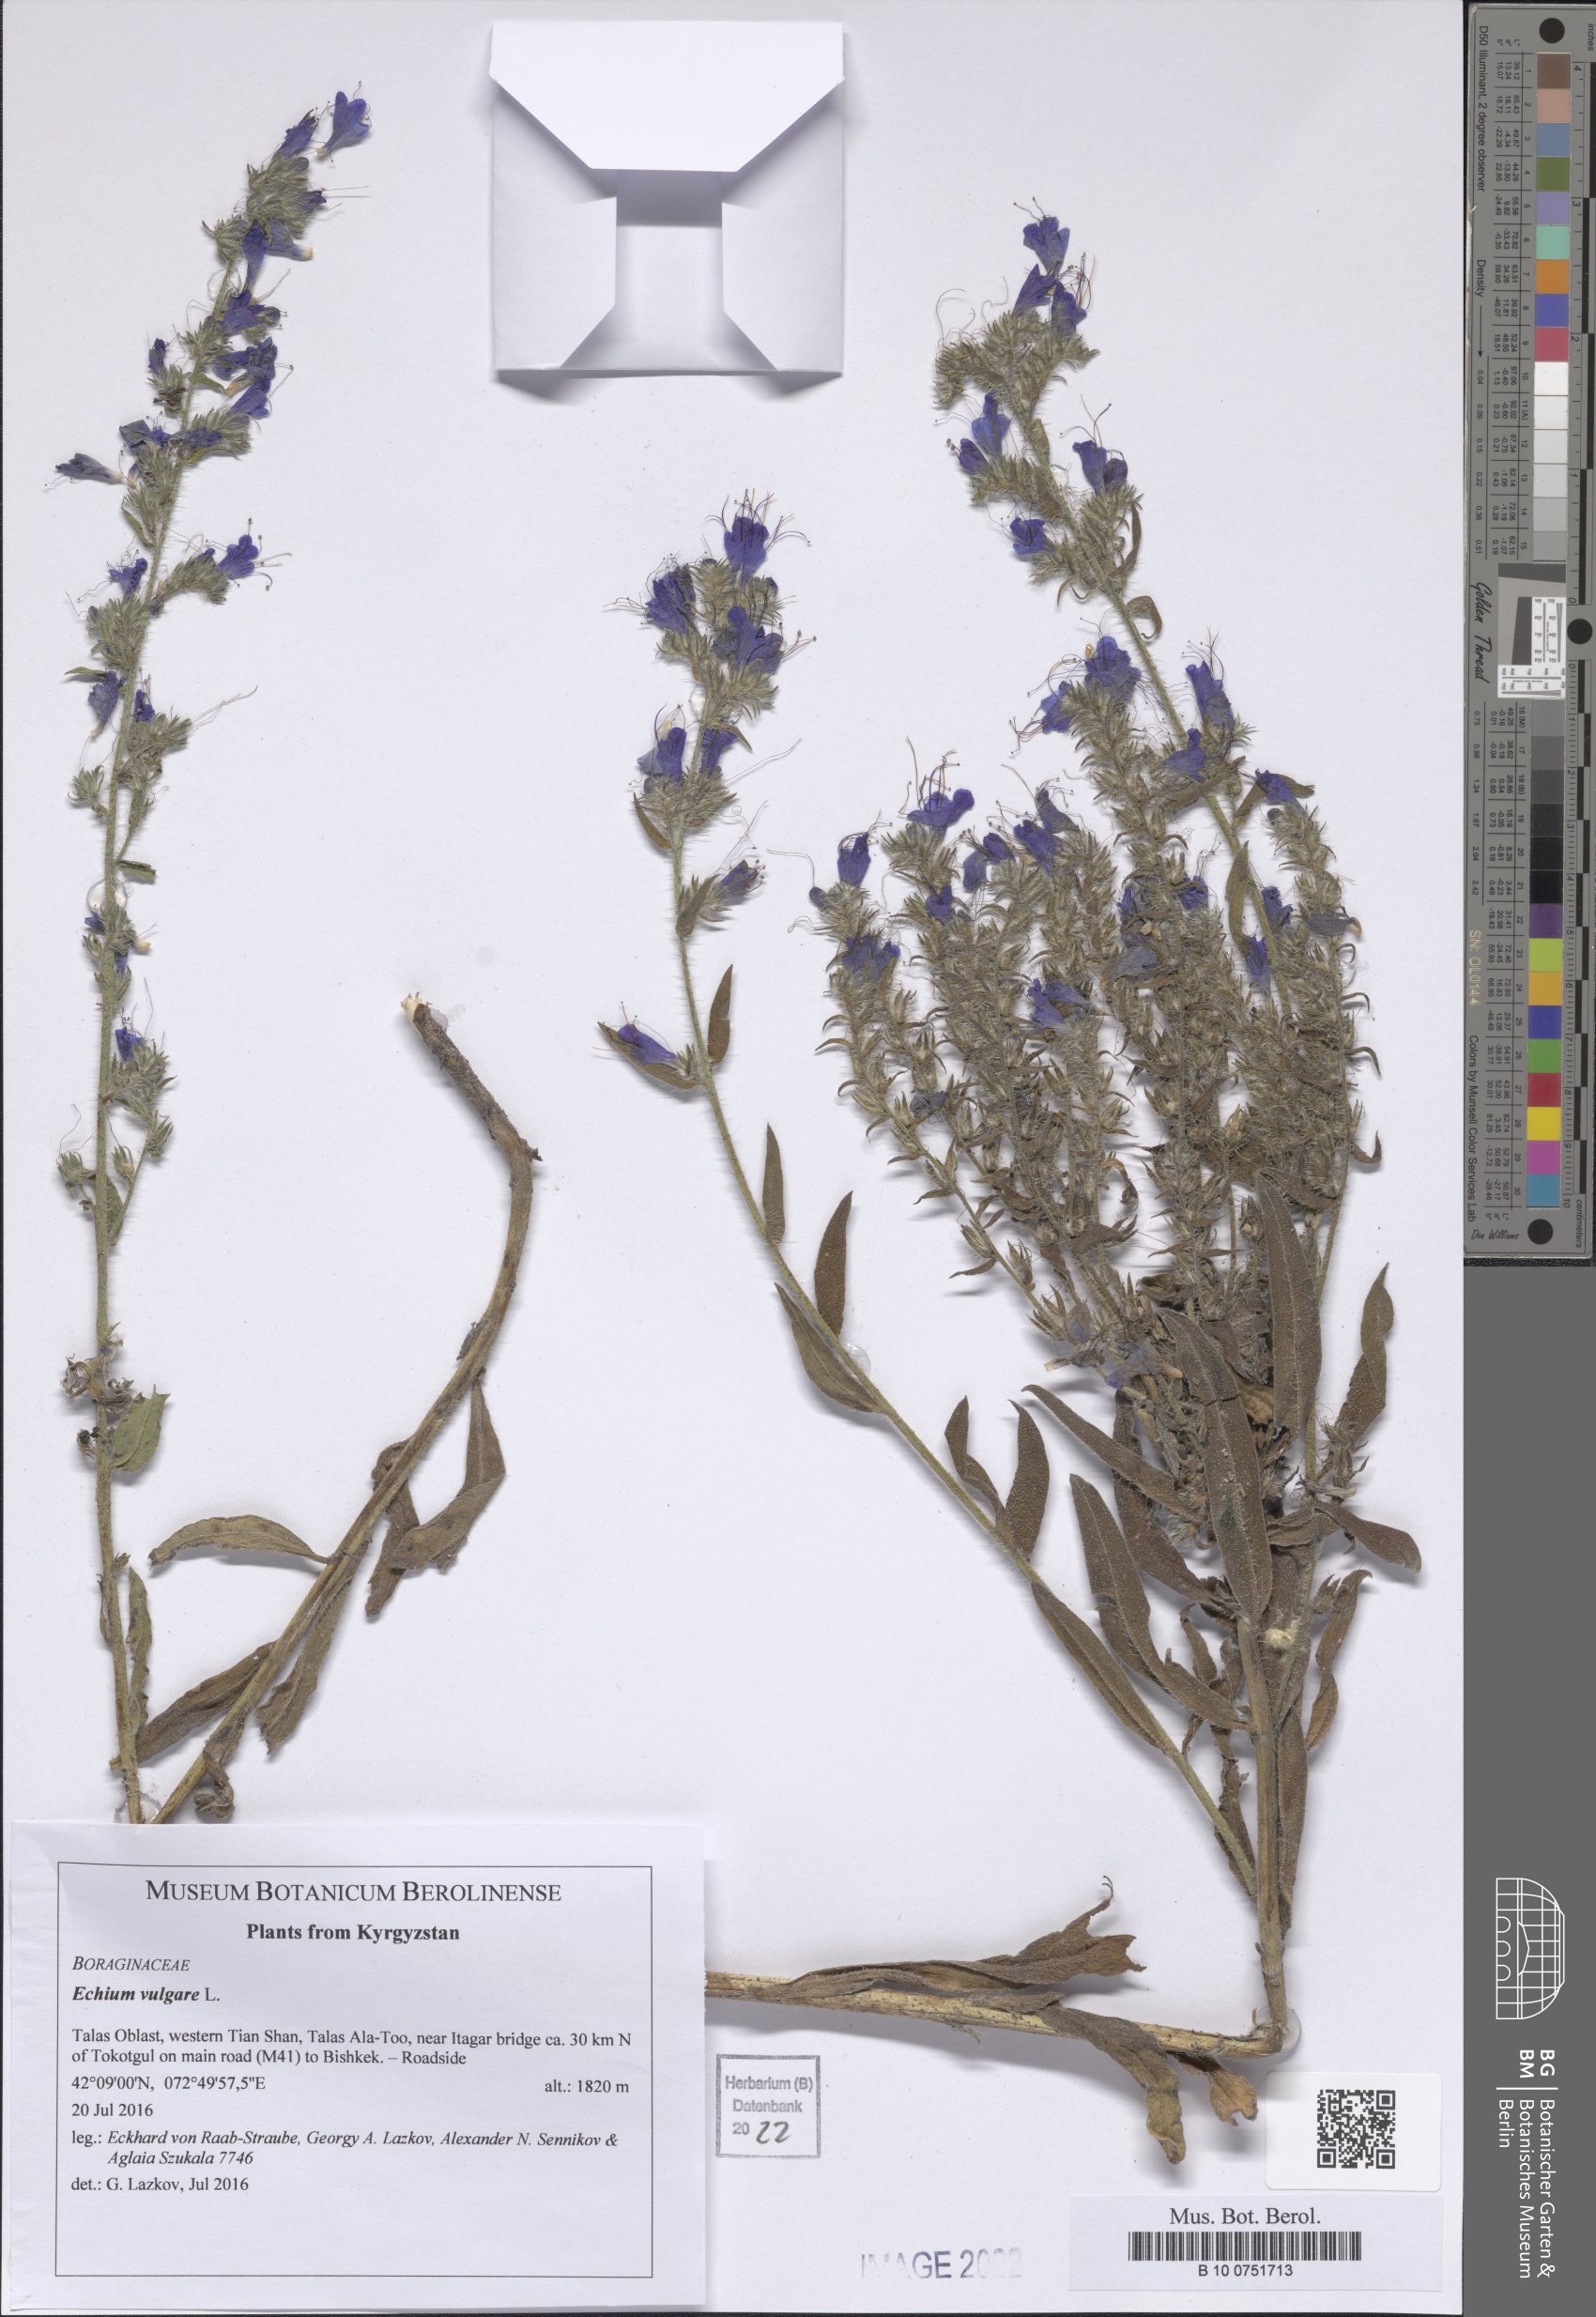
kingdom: Plantae
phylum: Tracheophyta
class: Magnoliopsida
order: Boraginales
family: Boraginaceae
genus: Echium
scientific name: Echium vulgare
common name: Common viper's bugloss
